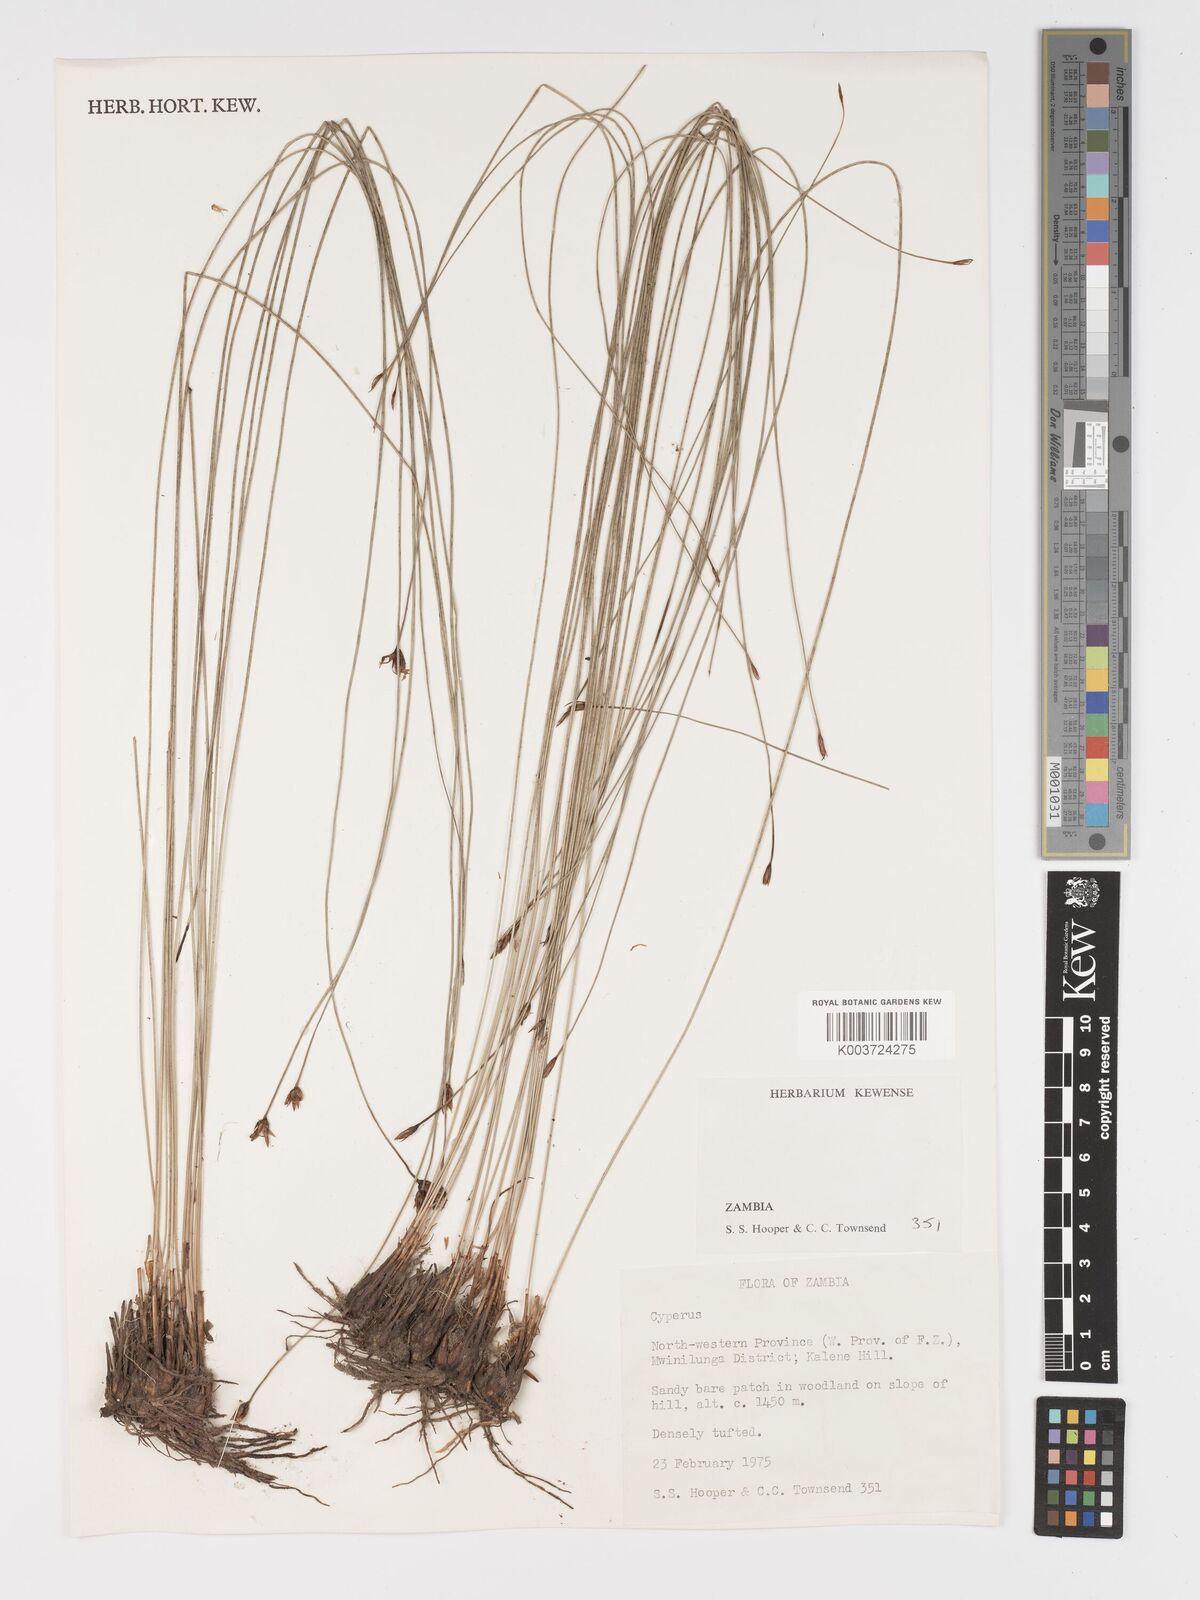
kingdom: Plantae
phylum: Tracheophyta
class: Liliopsida
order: Poales
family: Cyperaceae
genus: Cyperus
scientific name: Cyperus
